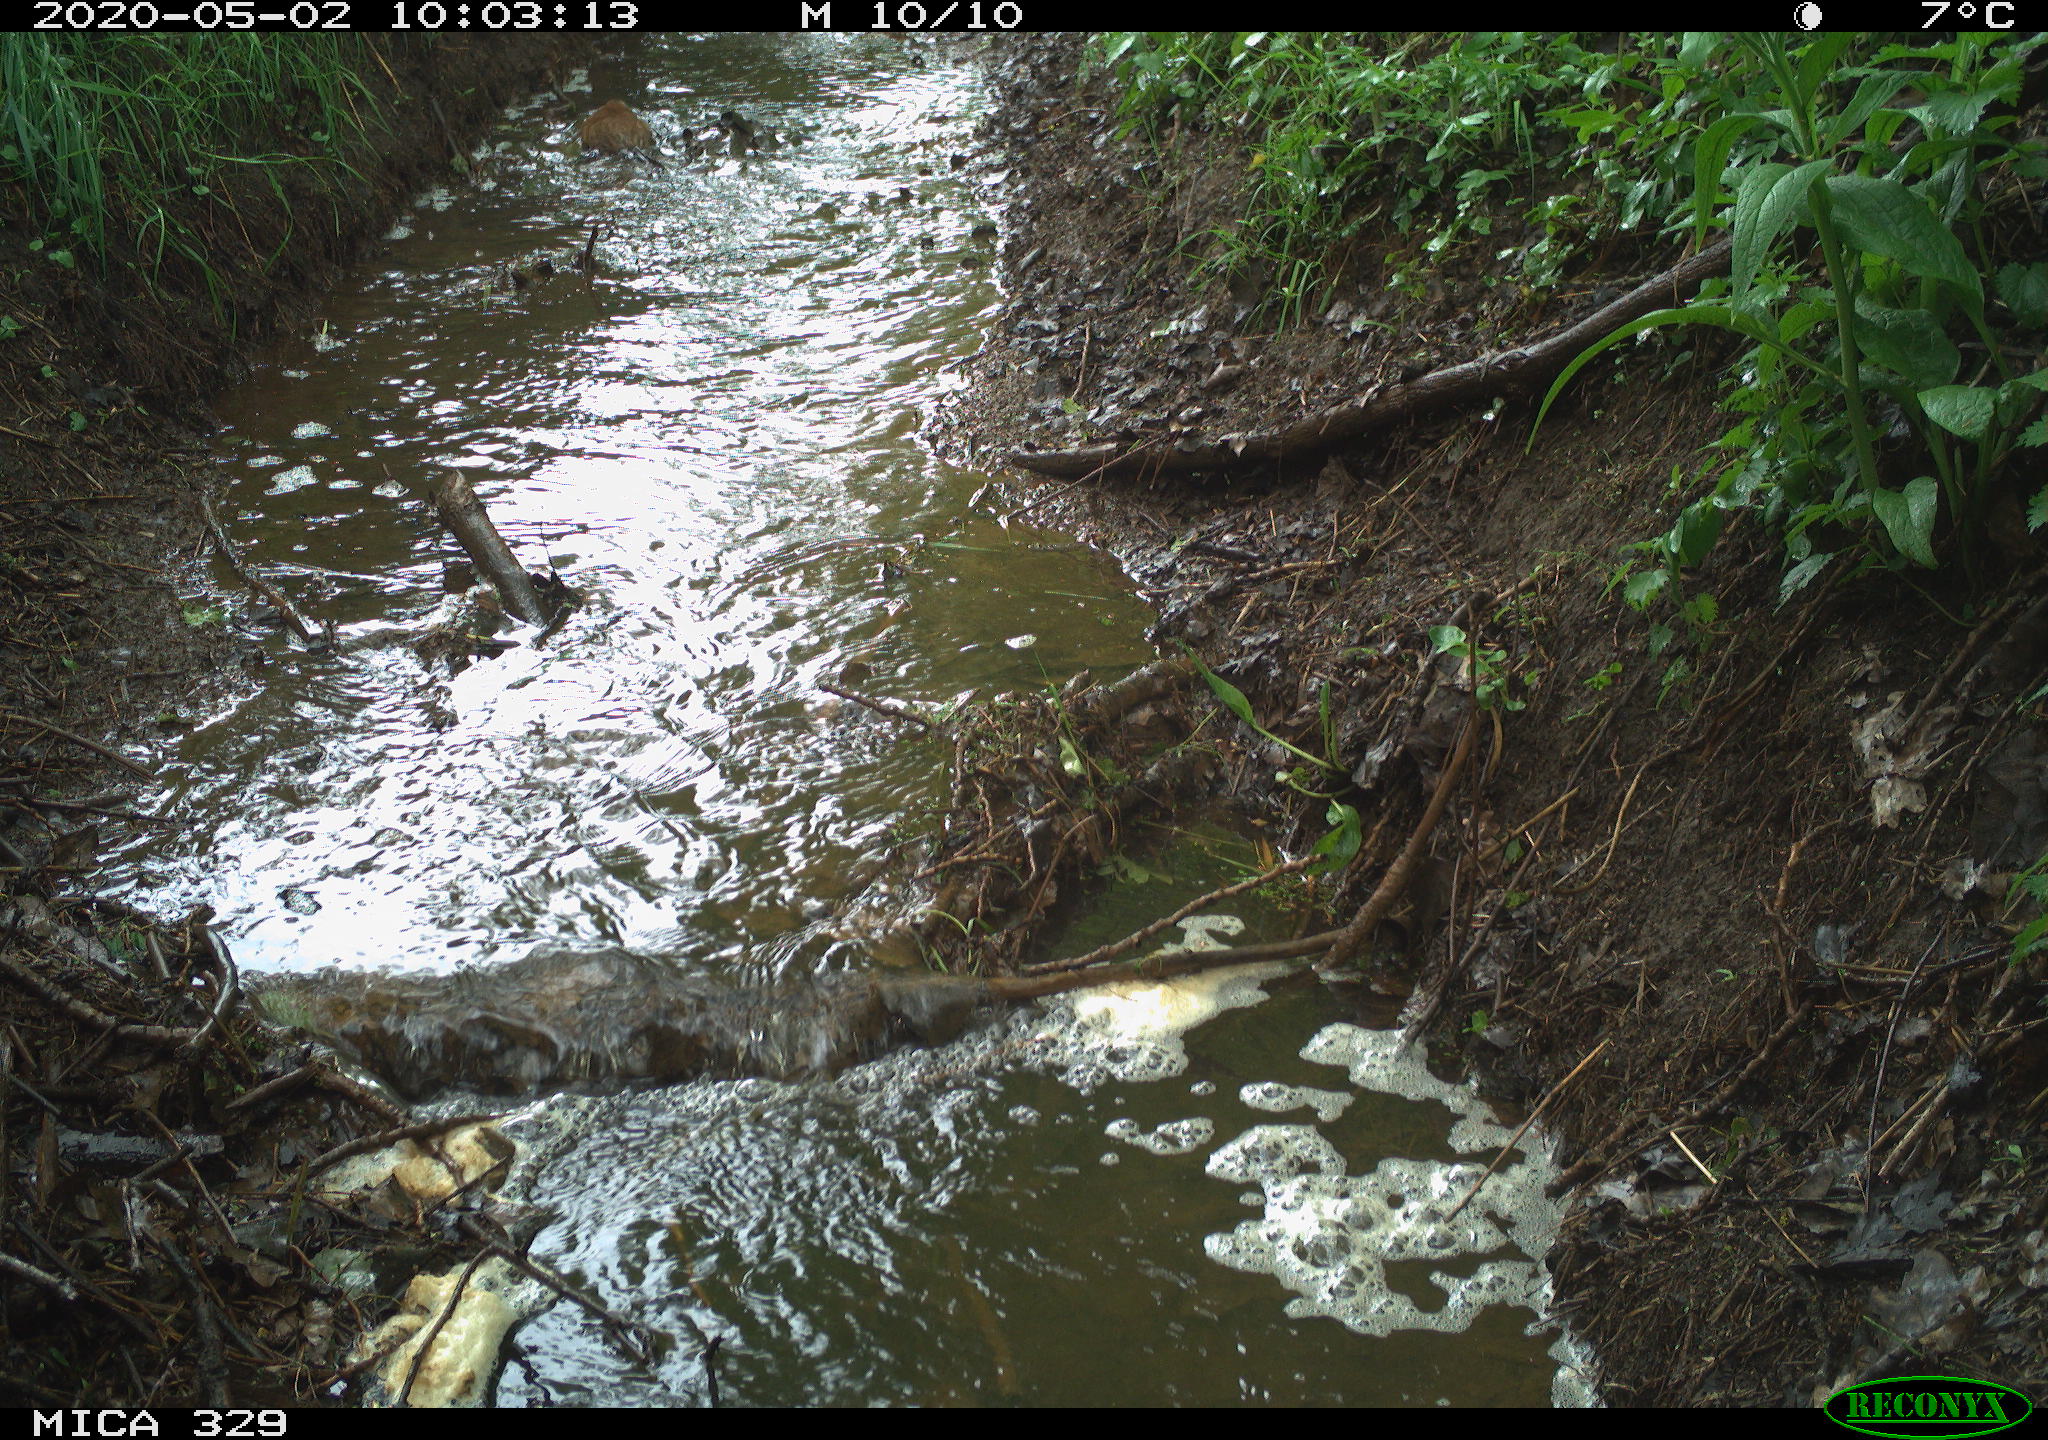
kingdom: Animalia
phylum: Chordata
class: Mammalia
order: Rodentia
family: Cricetidae
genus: Ondatra
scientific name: Ondatra zibethicus
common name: Muskrat
